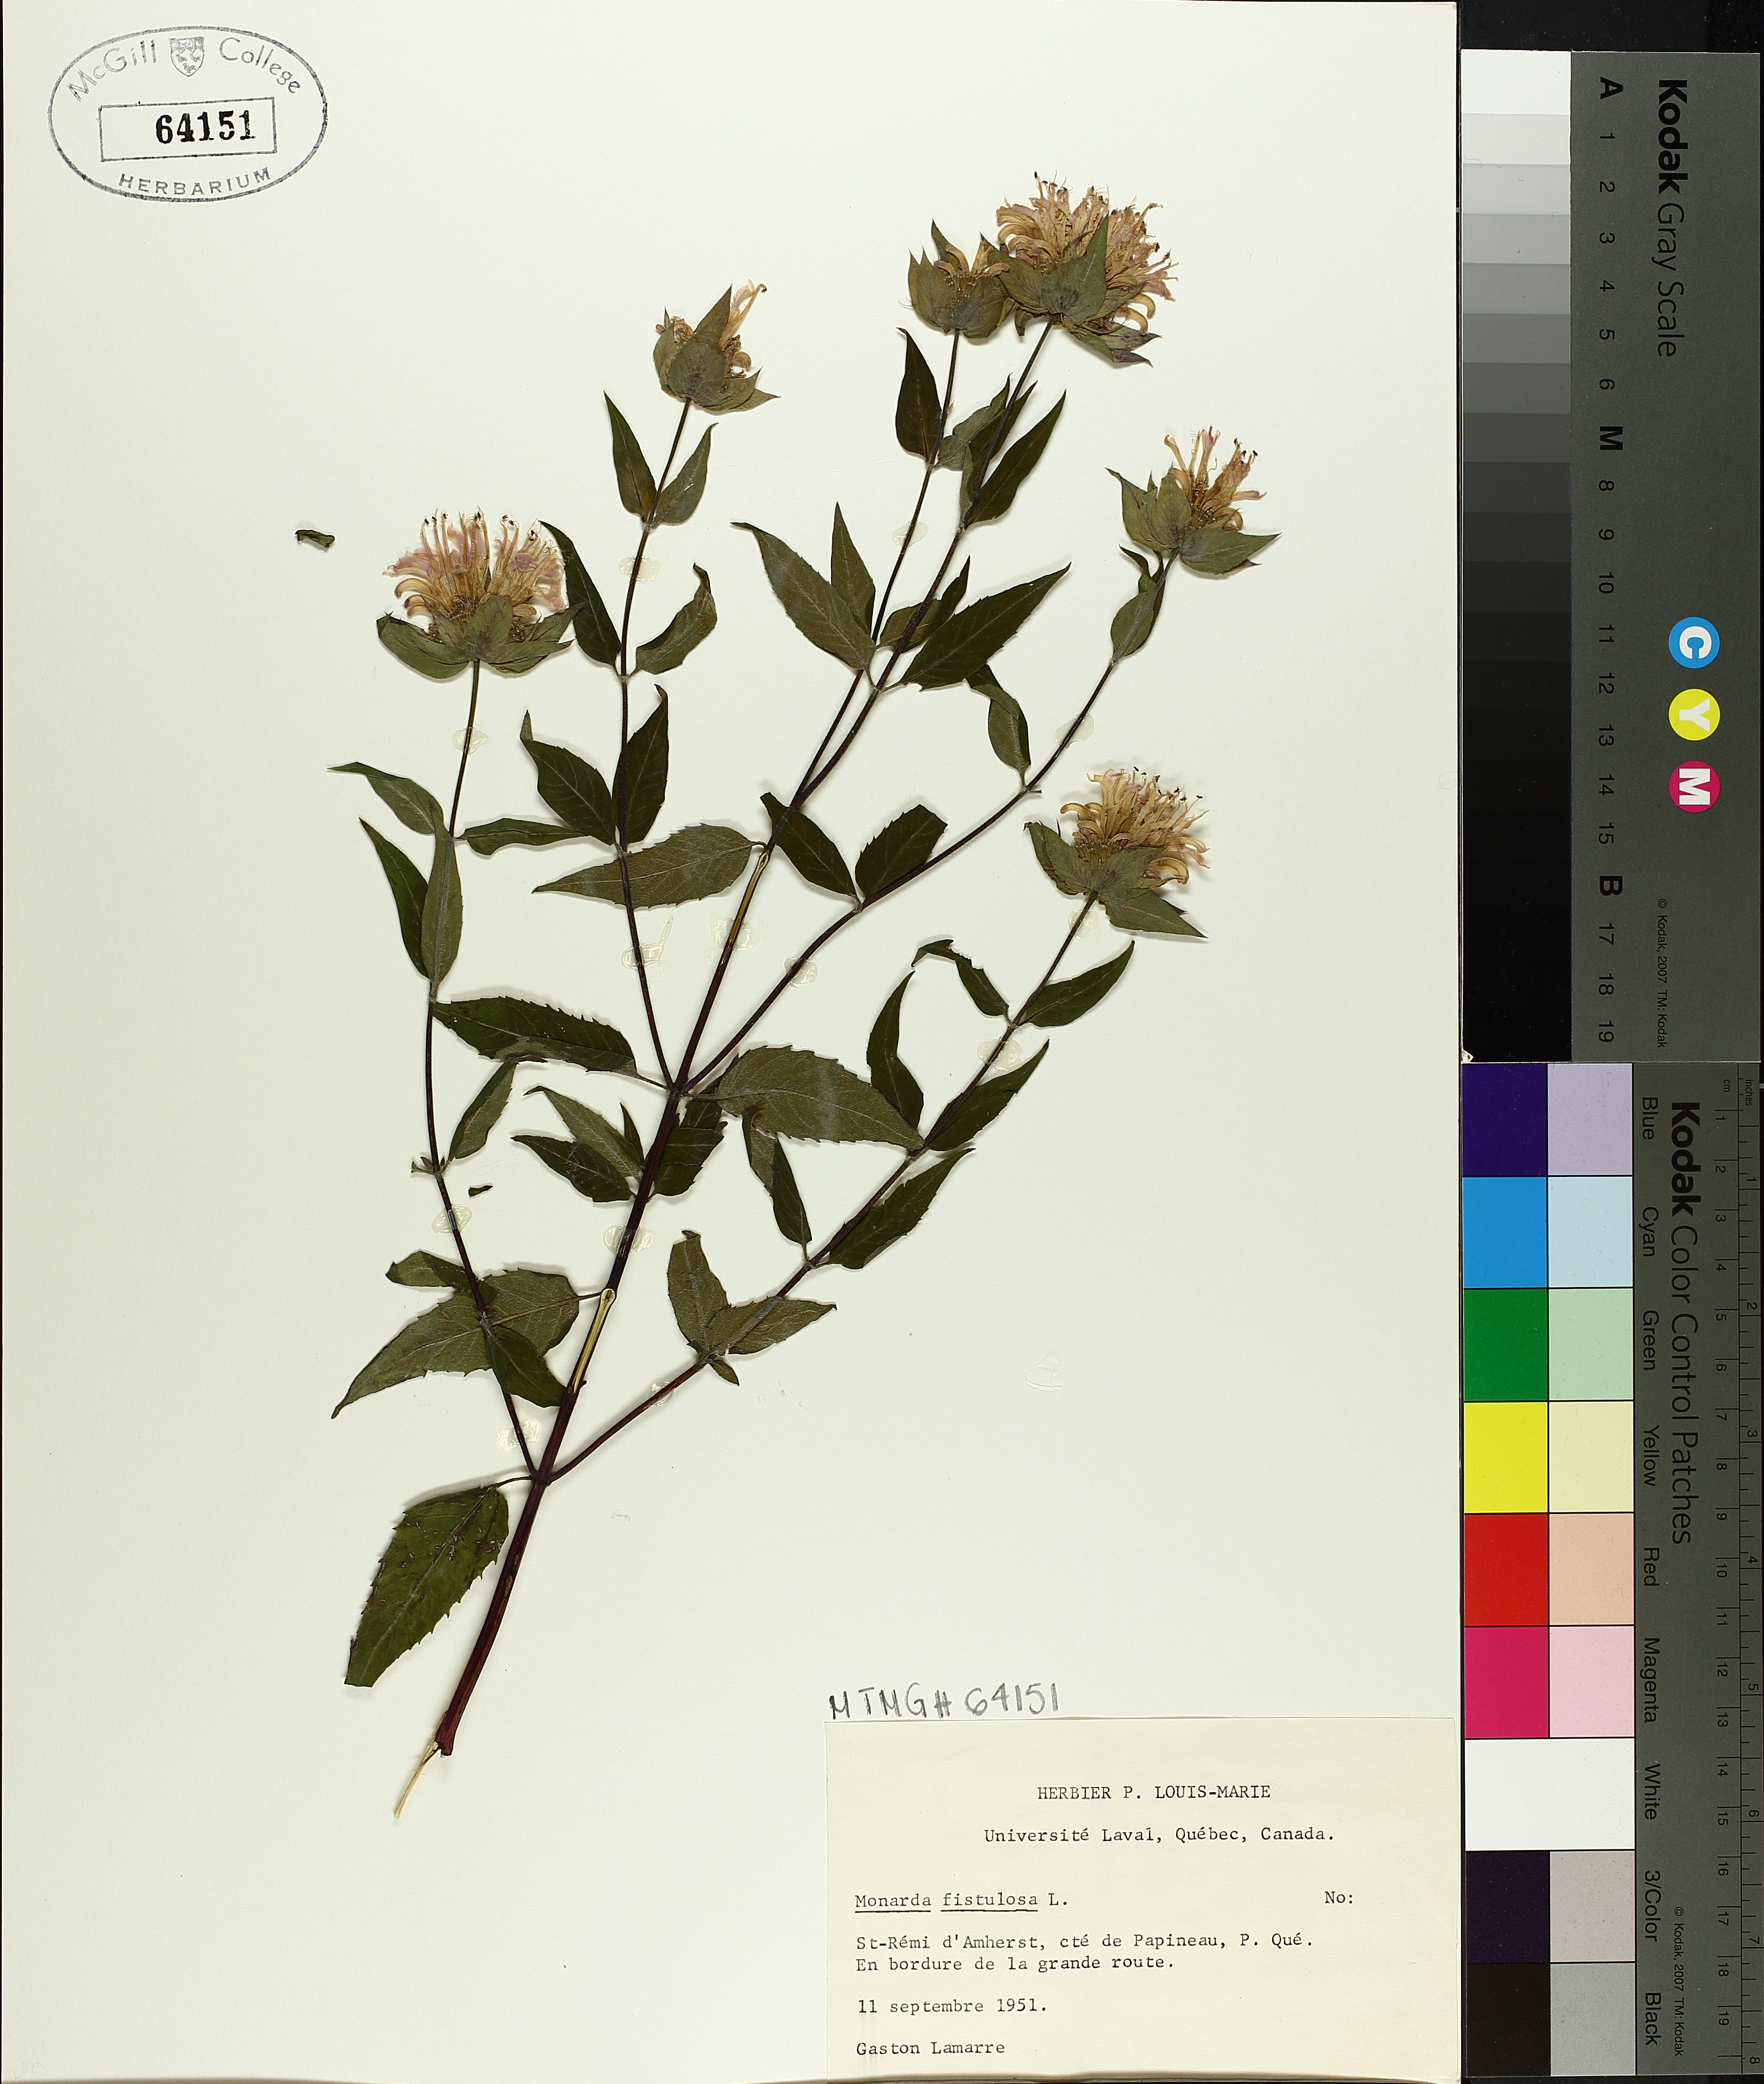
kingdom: Plantae
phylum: Tracheophyta
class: Magnoliopsida
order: Lamiales
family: Lamiaceae
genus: Monarda
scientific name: Monarda fistulosa
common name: Purple beebalm
